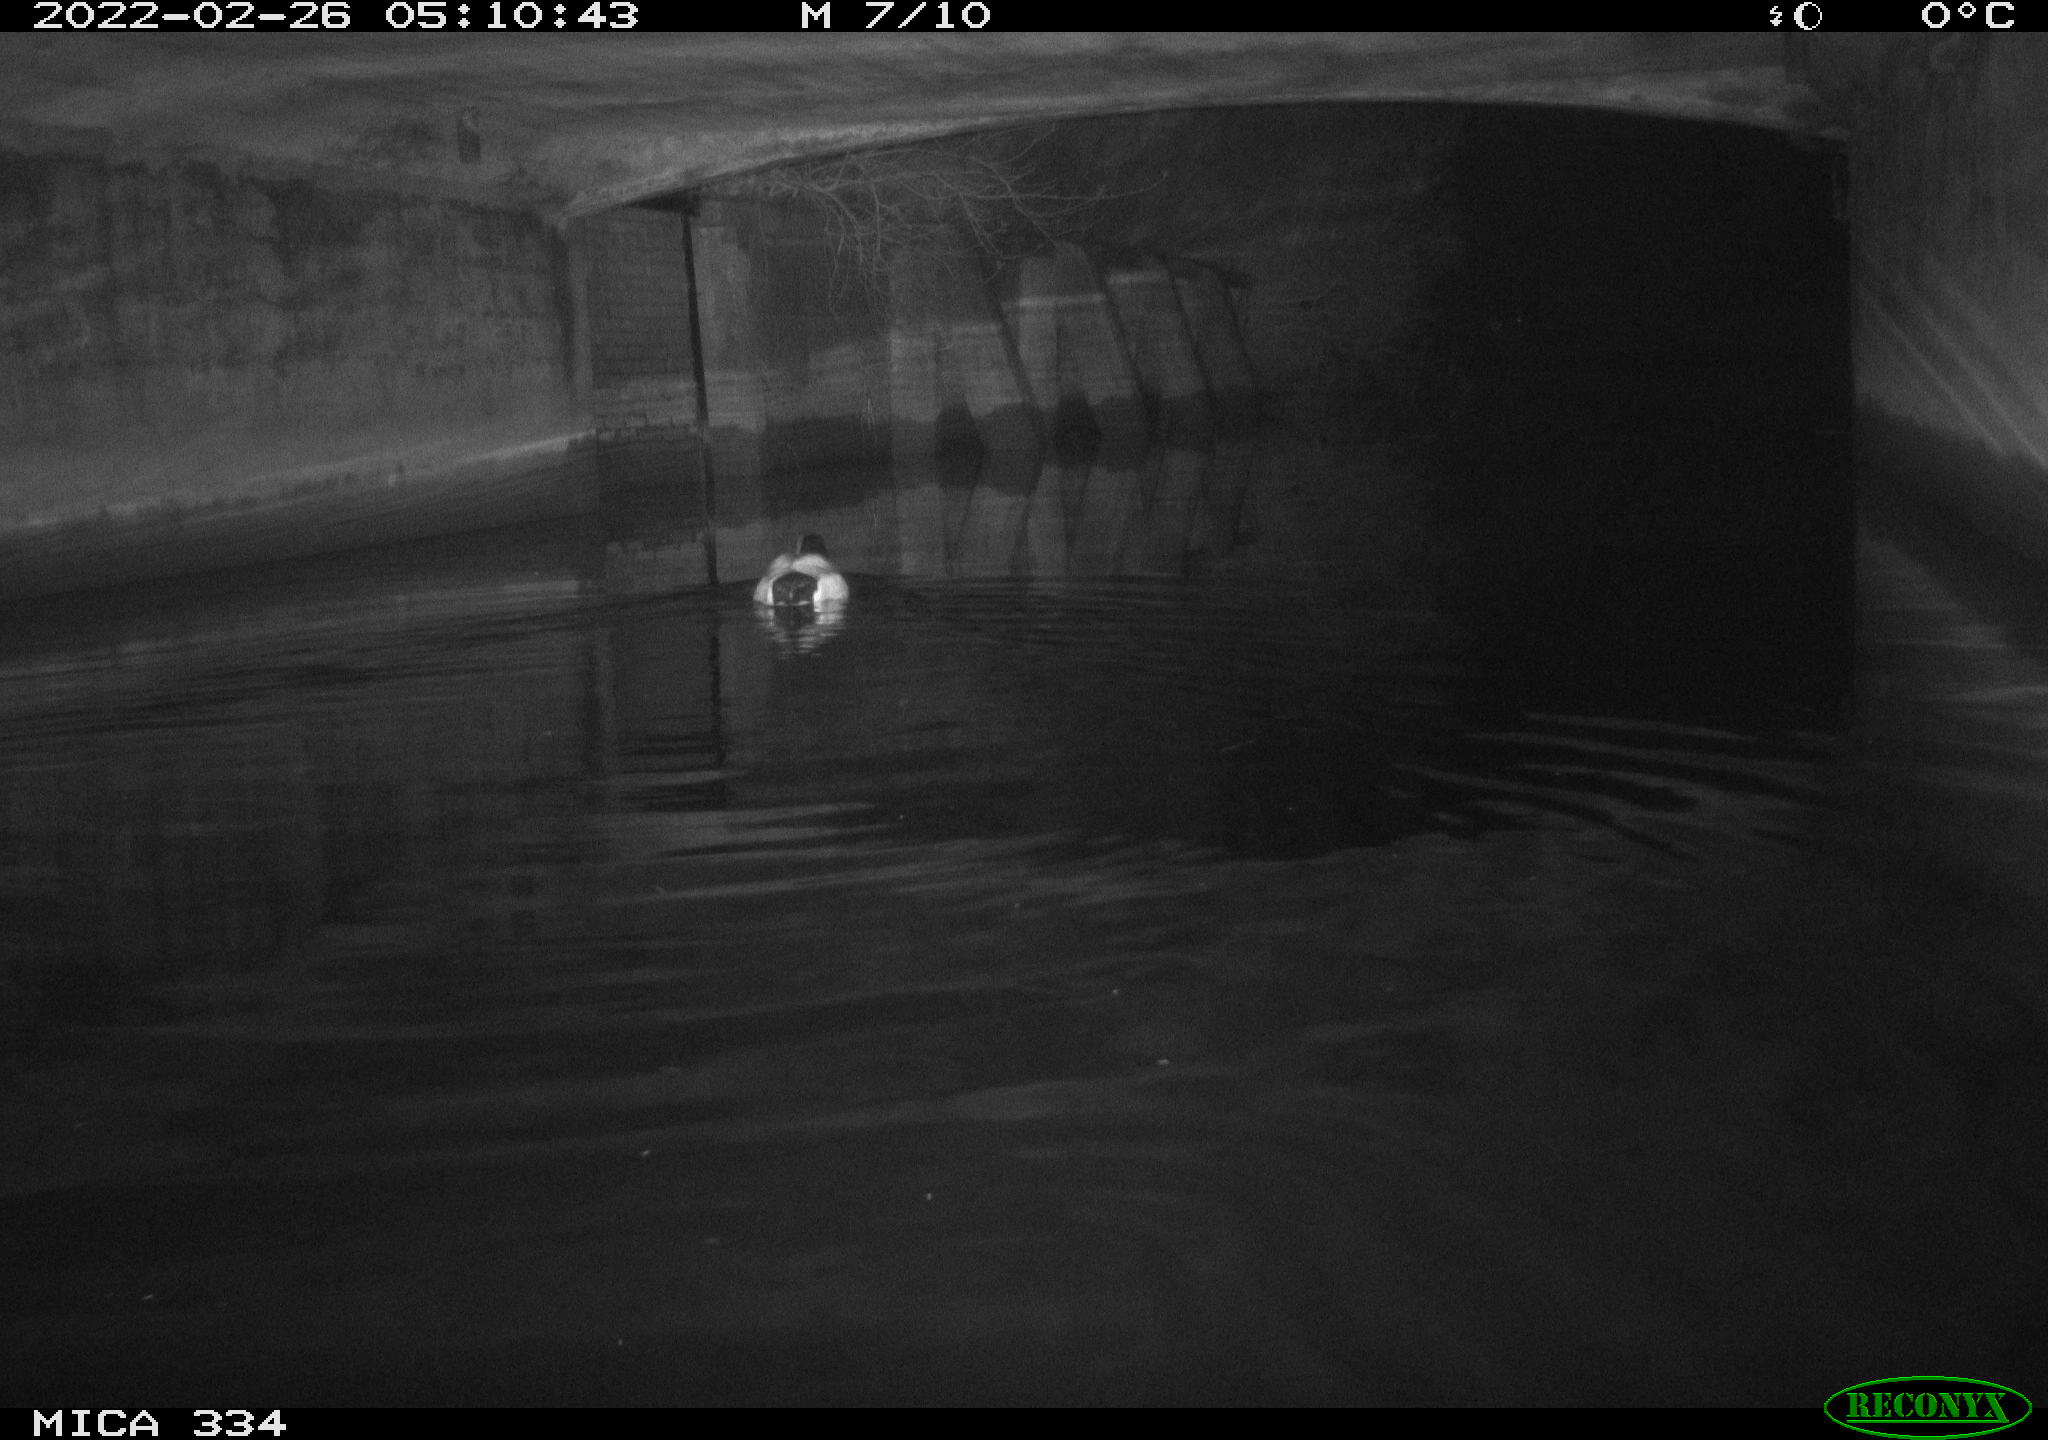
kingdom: Animalia
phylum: Chordata
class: Aves
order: Anseriformes
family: Anatidae
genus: Anas
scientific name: Anas platyrhynchos
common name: Mallard
